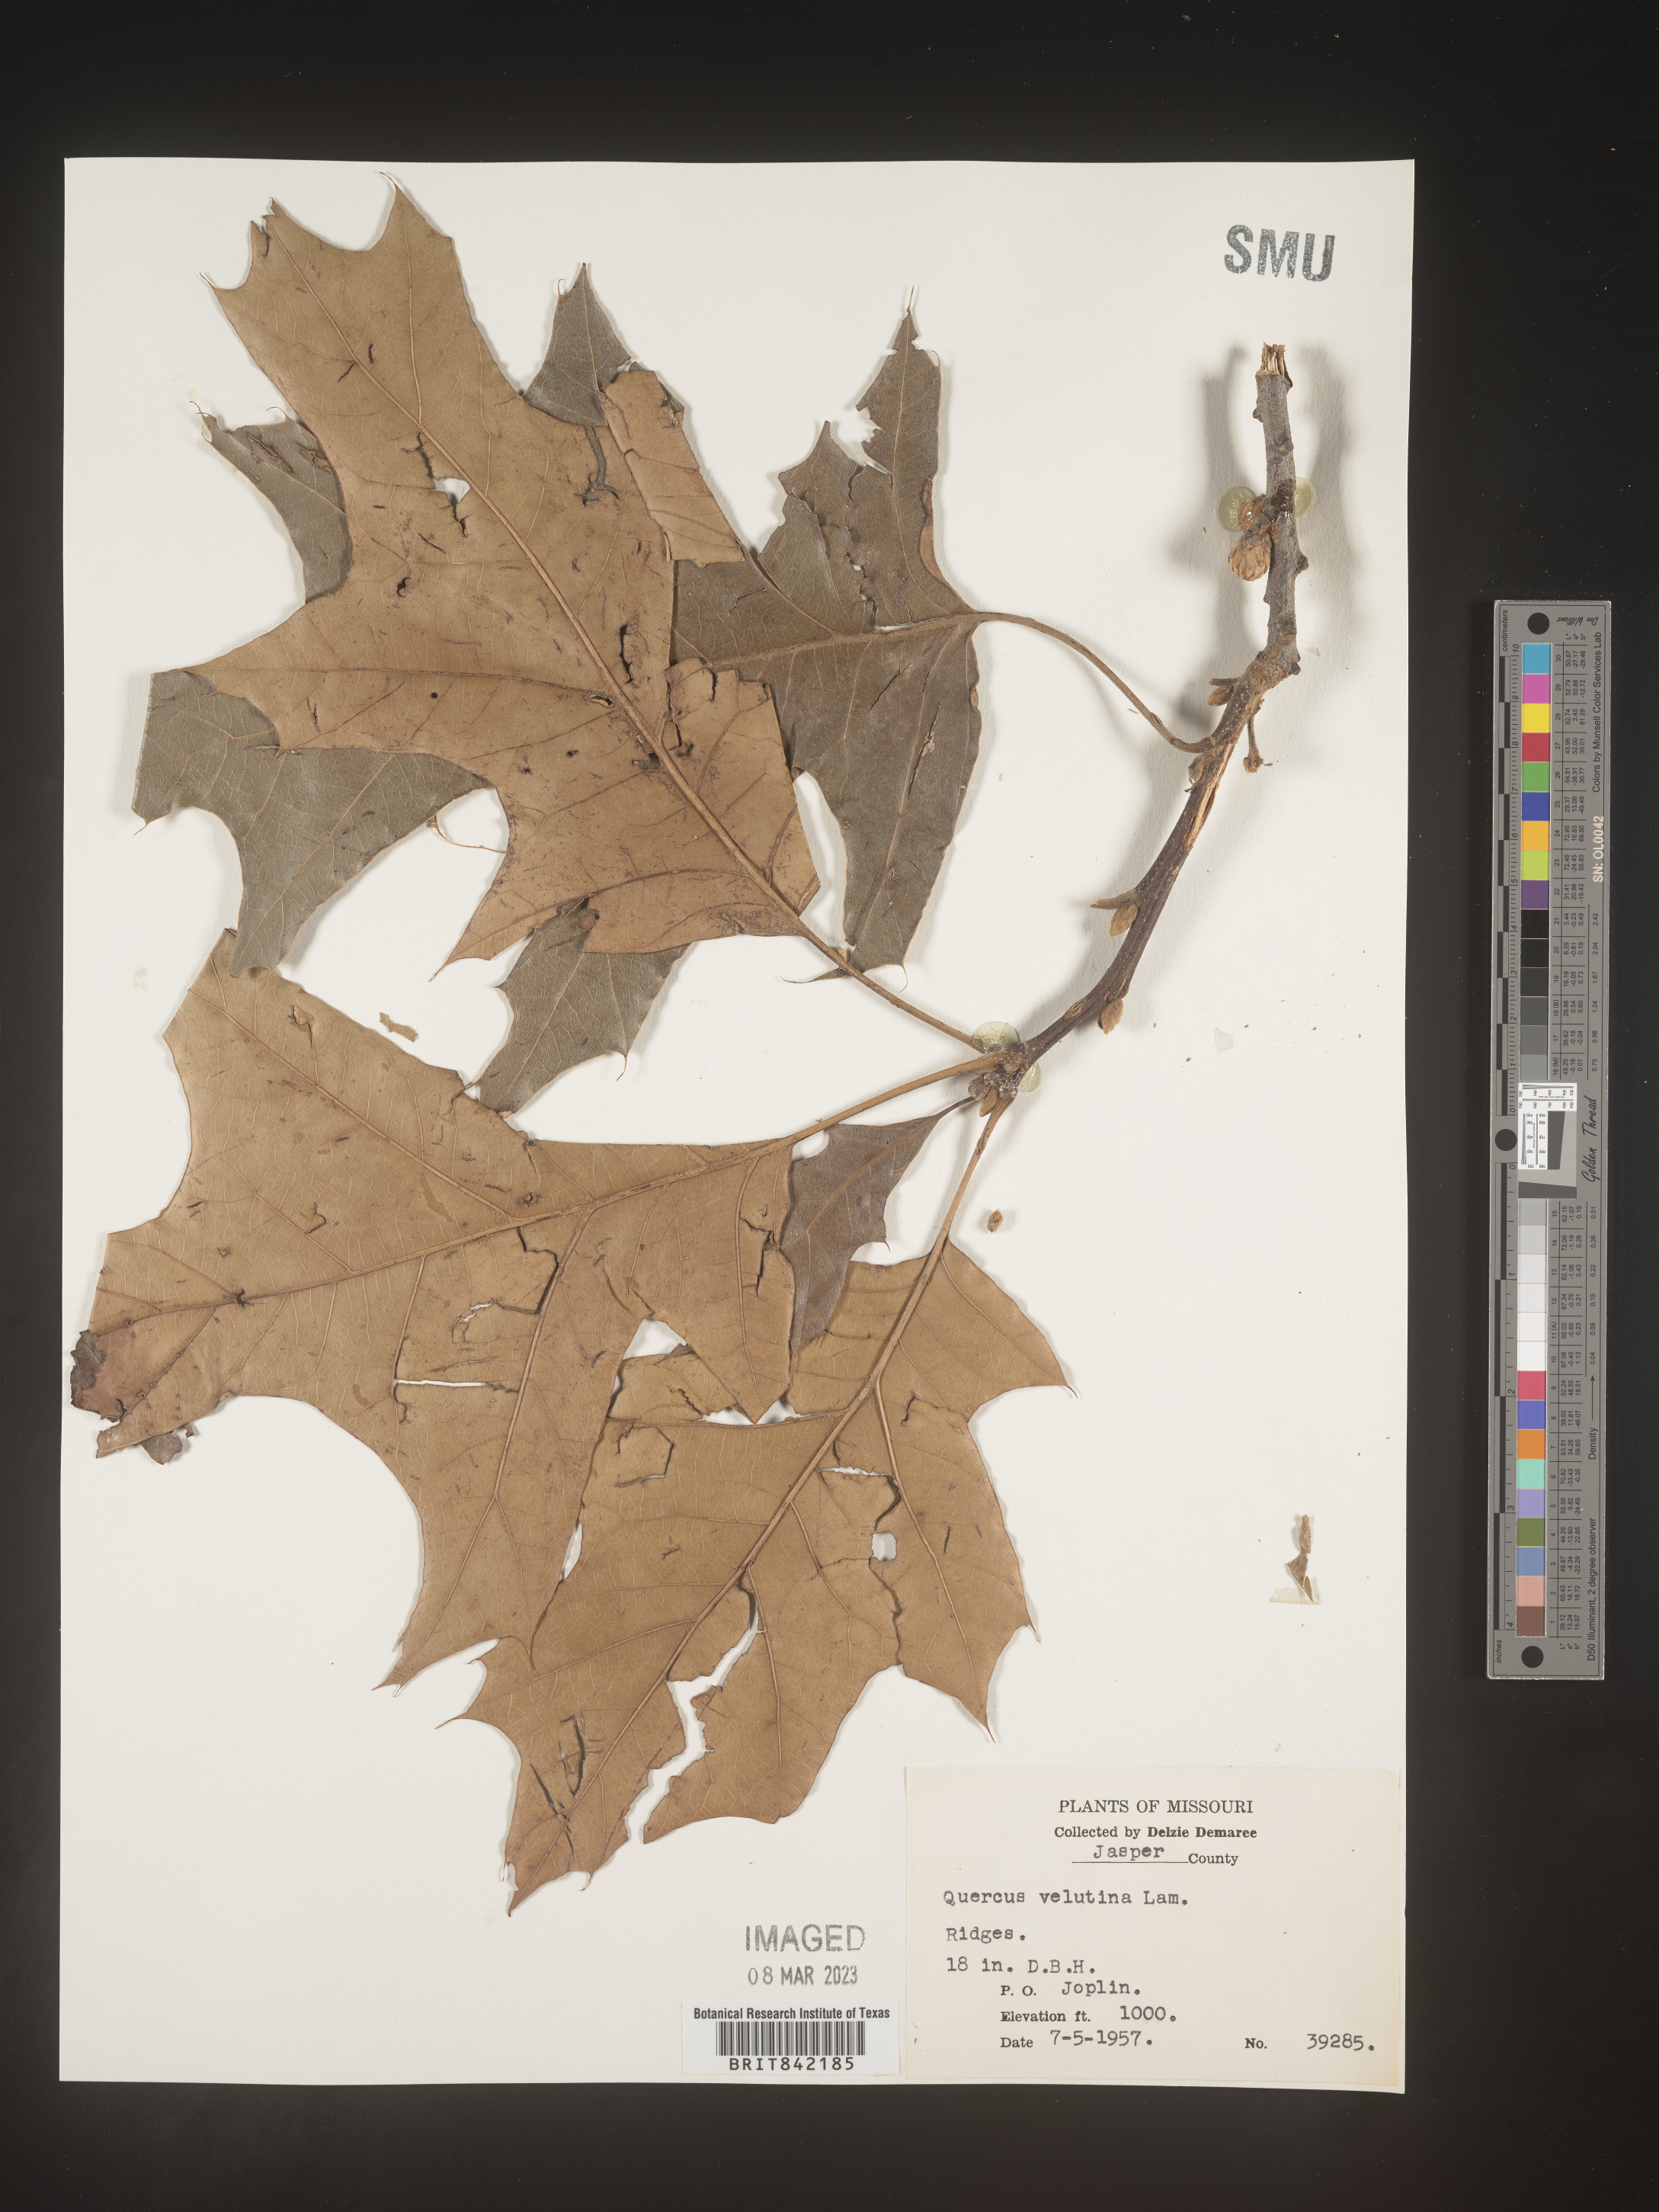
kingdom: Plantae
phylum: Tracheophyta
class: Magnoliopsida
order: Fagales
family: Fagaceae
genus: Quercus
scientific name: Quercus velutina
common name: Black oak
